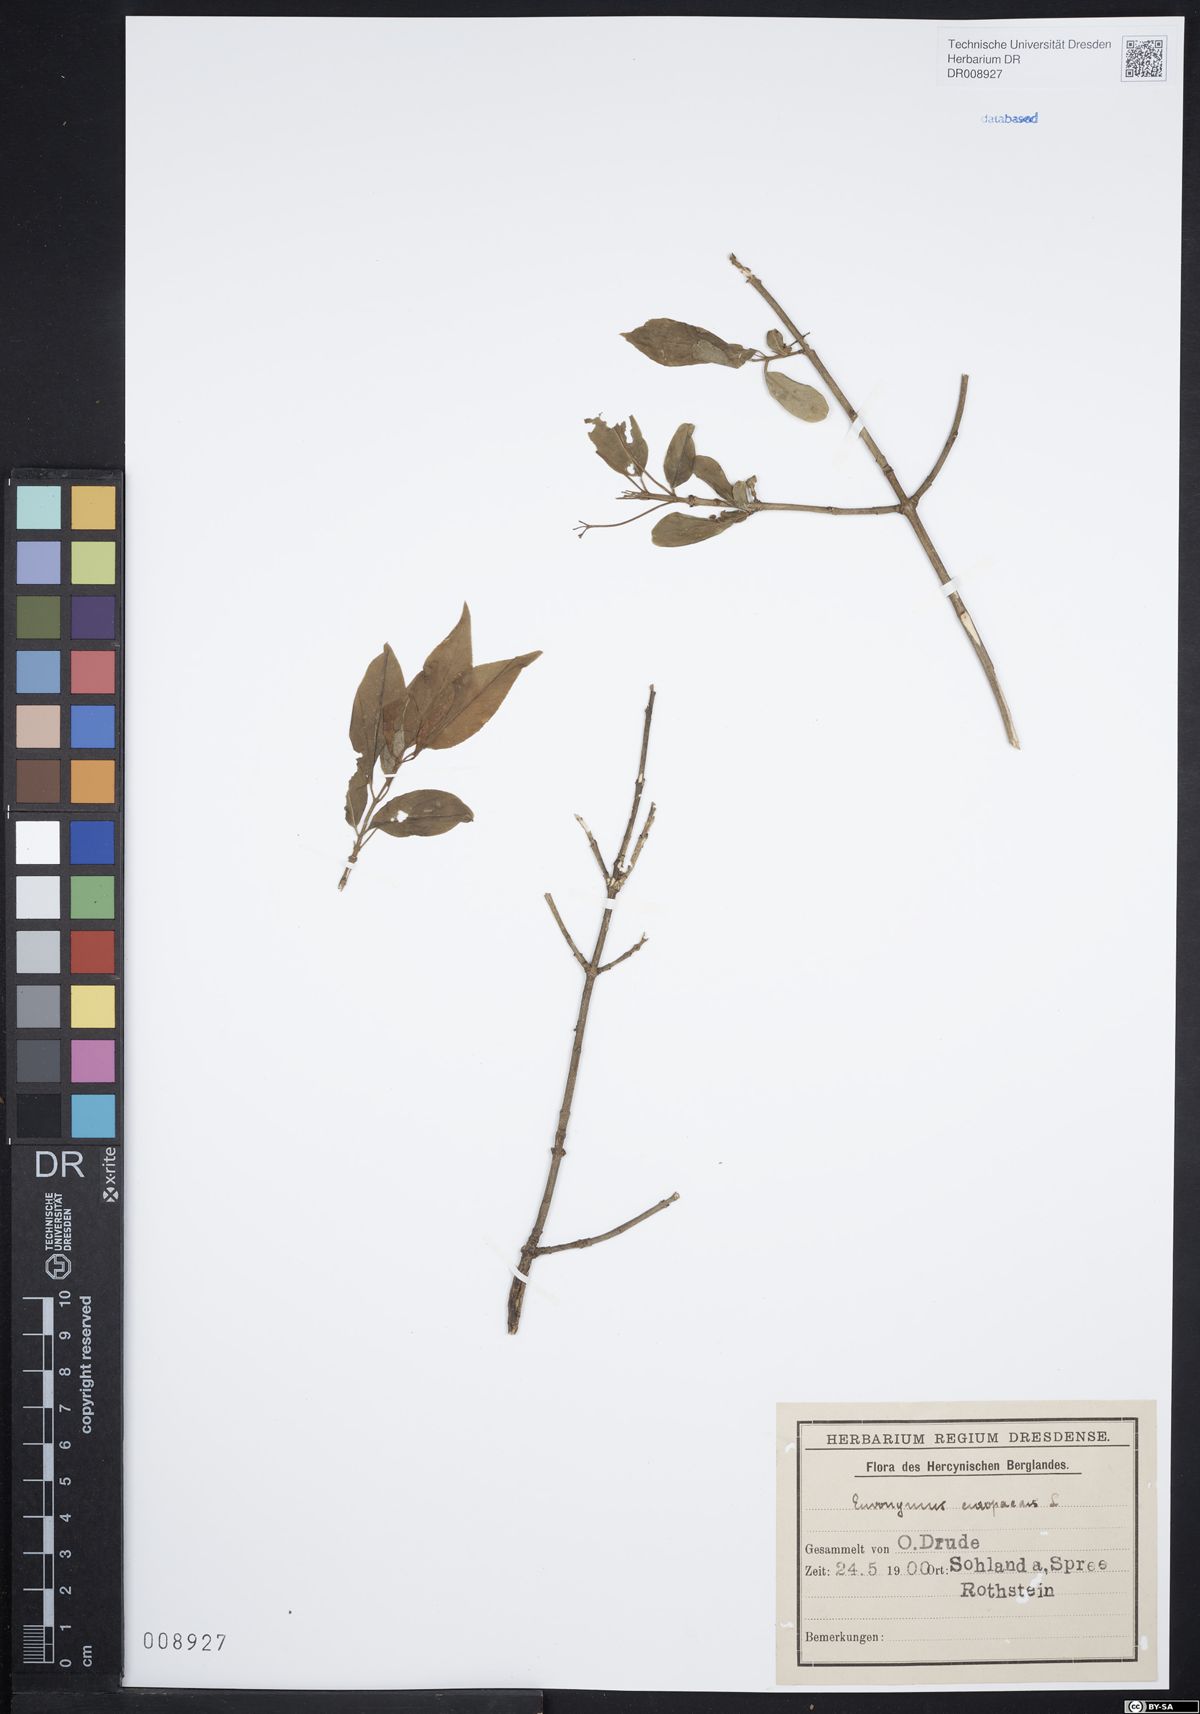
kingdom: Plantae
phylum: Tracheophyta
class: Magnoliopsida
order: Celastrales
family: Celastraceae
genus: Euonymus
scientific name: Euonymus europaeus
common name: Spindle
